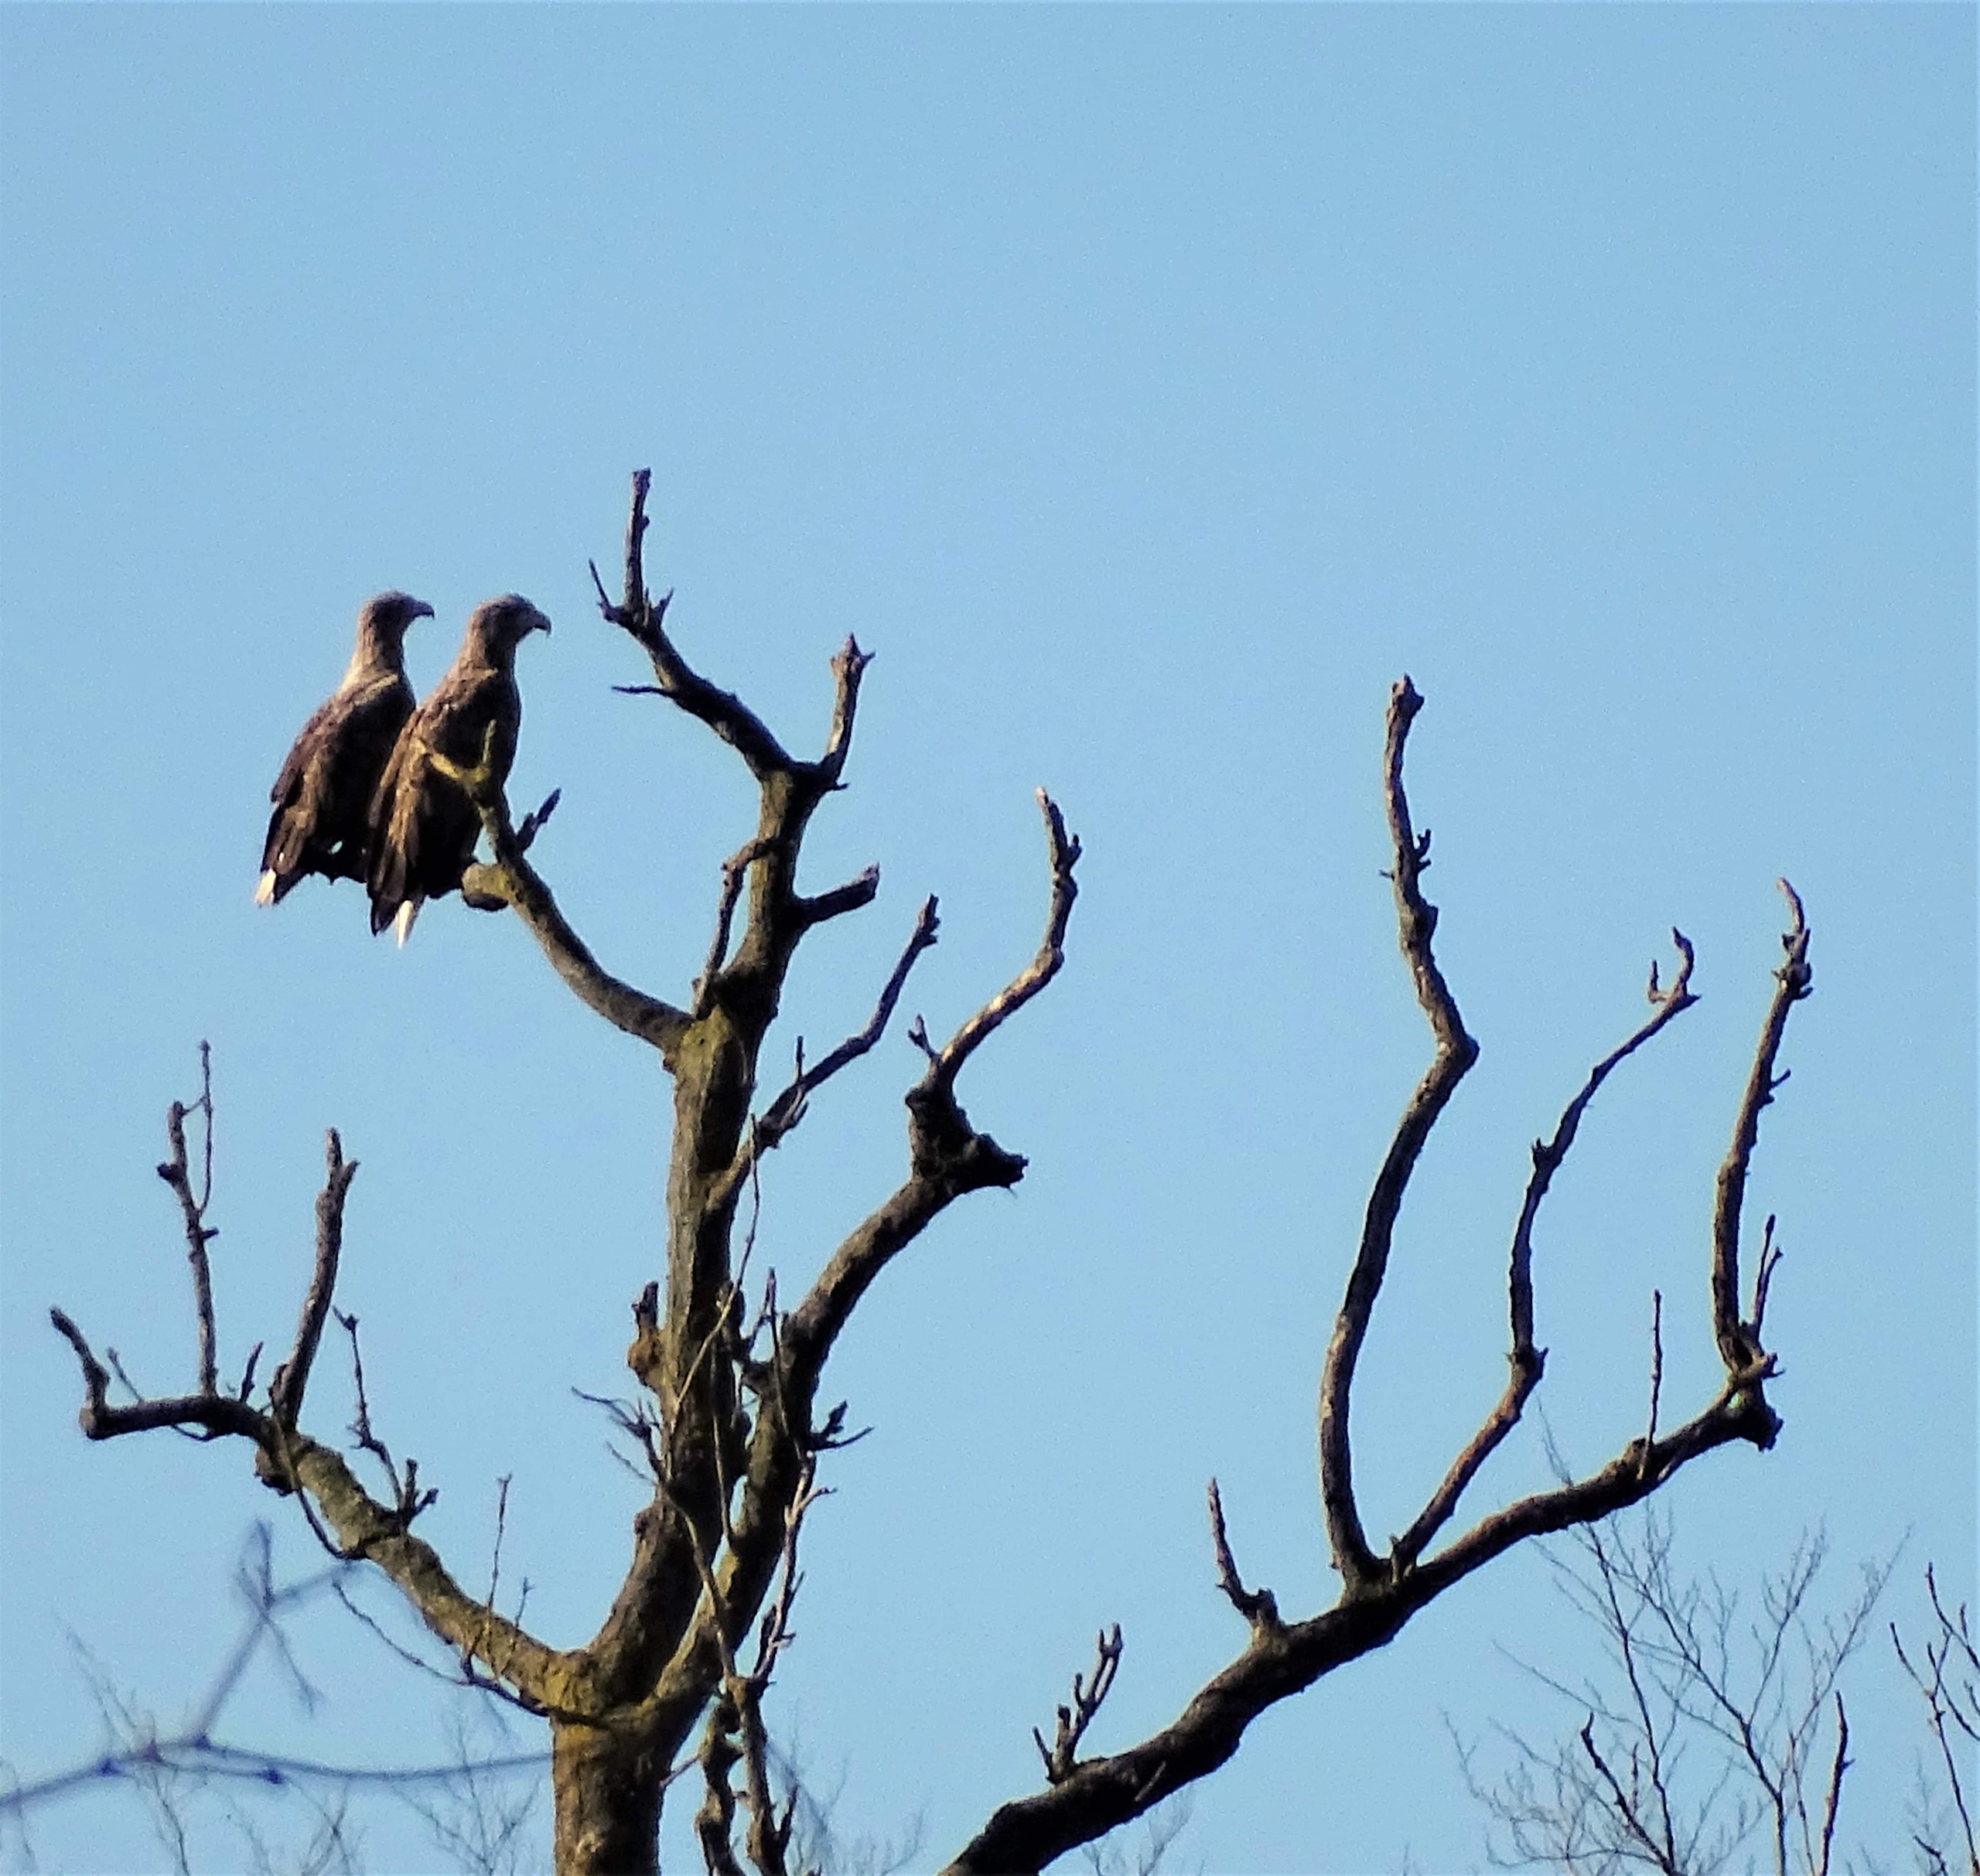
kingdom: Animalia
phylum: Chordata
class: Aves
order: Accipitriformes
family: Accipitridae
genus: Haliaeetus
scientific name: Haliaeetus albicilla
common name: Havørn
